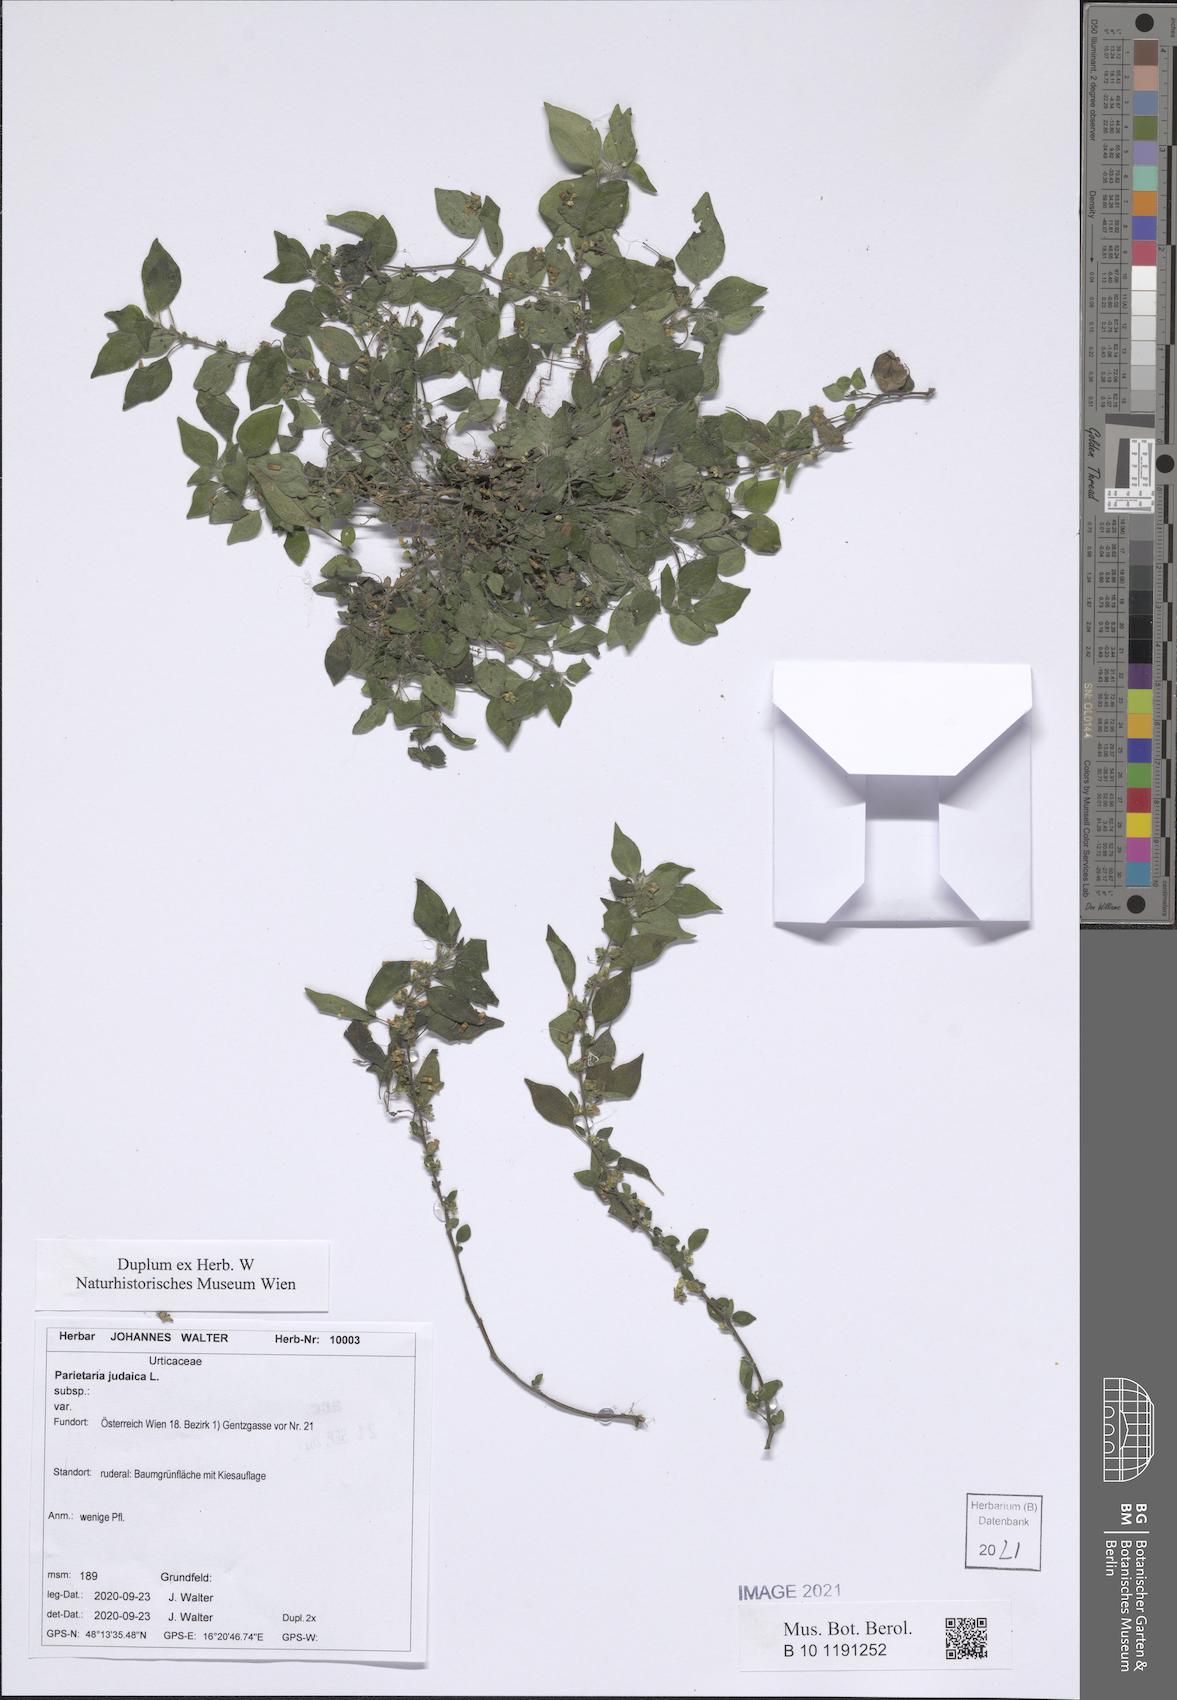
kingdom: Plantae
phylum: Tracheophyta
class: Magnoliopsida
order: Rosales
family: Urticaceae
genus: Parietaria
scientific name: Parietaria judaica
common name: Pellitory-of-the-wall
